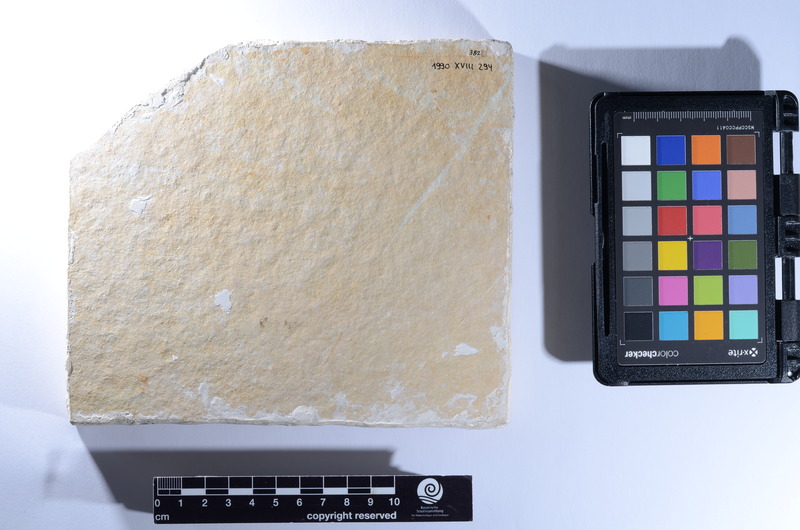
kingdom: Animalia
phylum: Chordata
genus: Eomesodon
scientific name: Eomesodon
